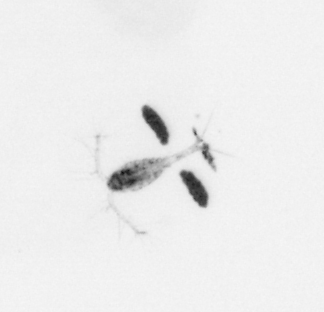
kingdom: Animalia
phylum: Arthropoda
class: Copepoda
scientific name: Copepoda
